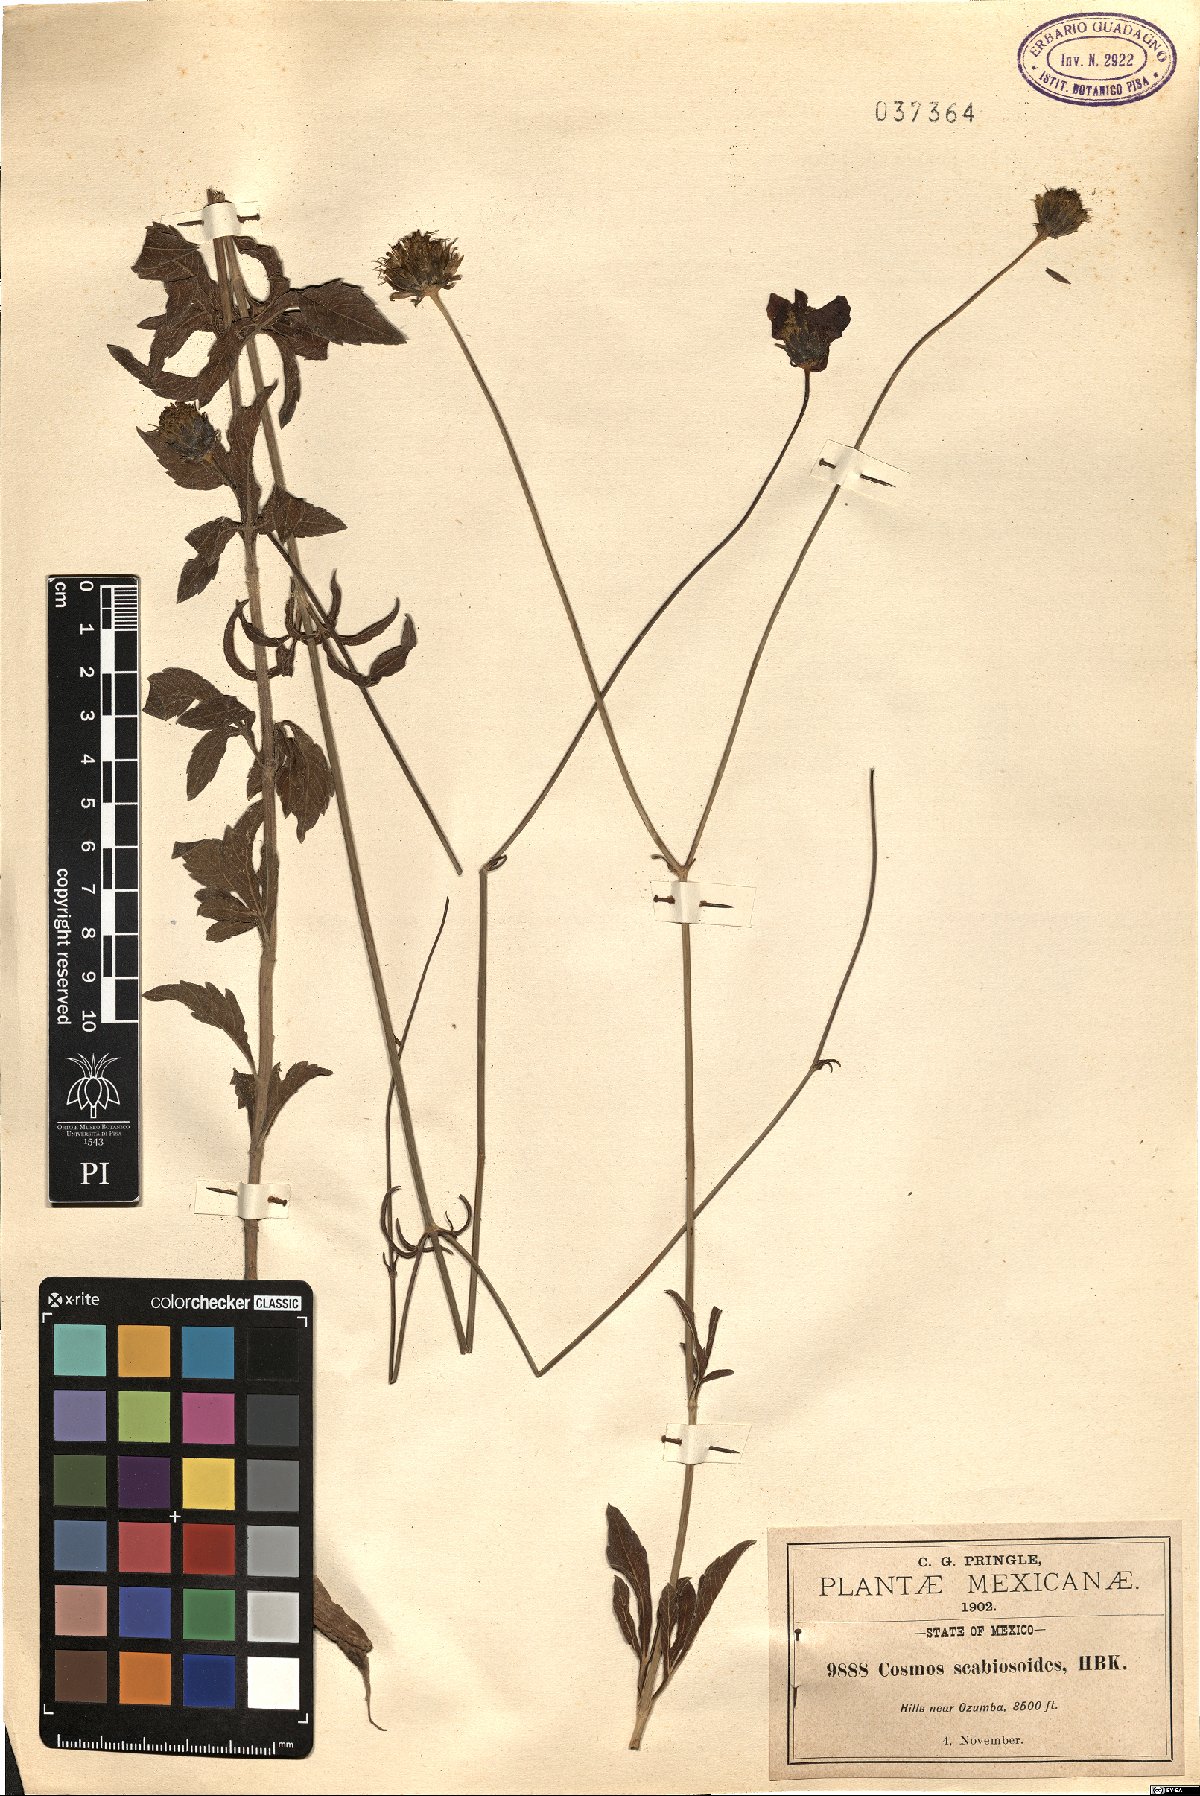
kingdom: Plantae
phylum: Tracheophyta
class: Magnoliopsida
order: Asterales
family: Asteraceae
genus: Cosmos
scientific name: Cosmos scabiosoides
